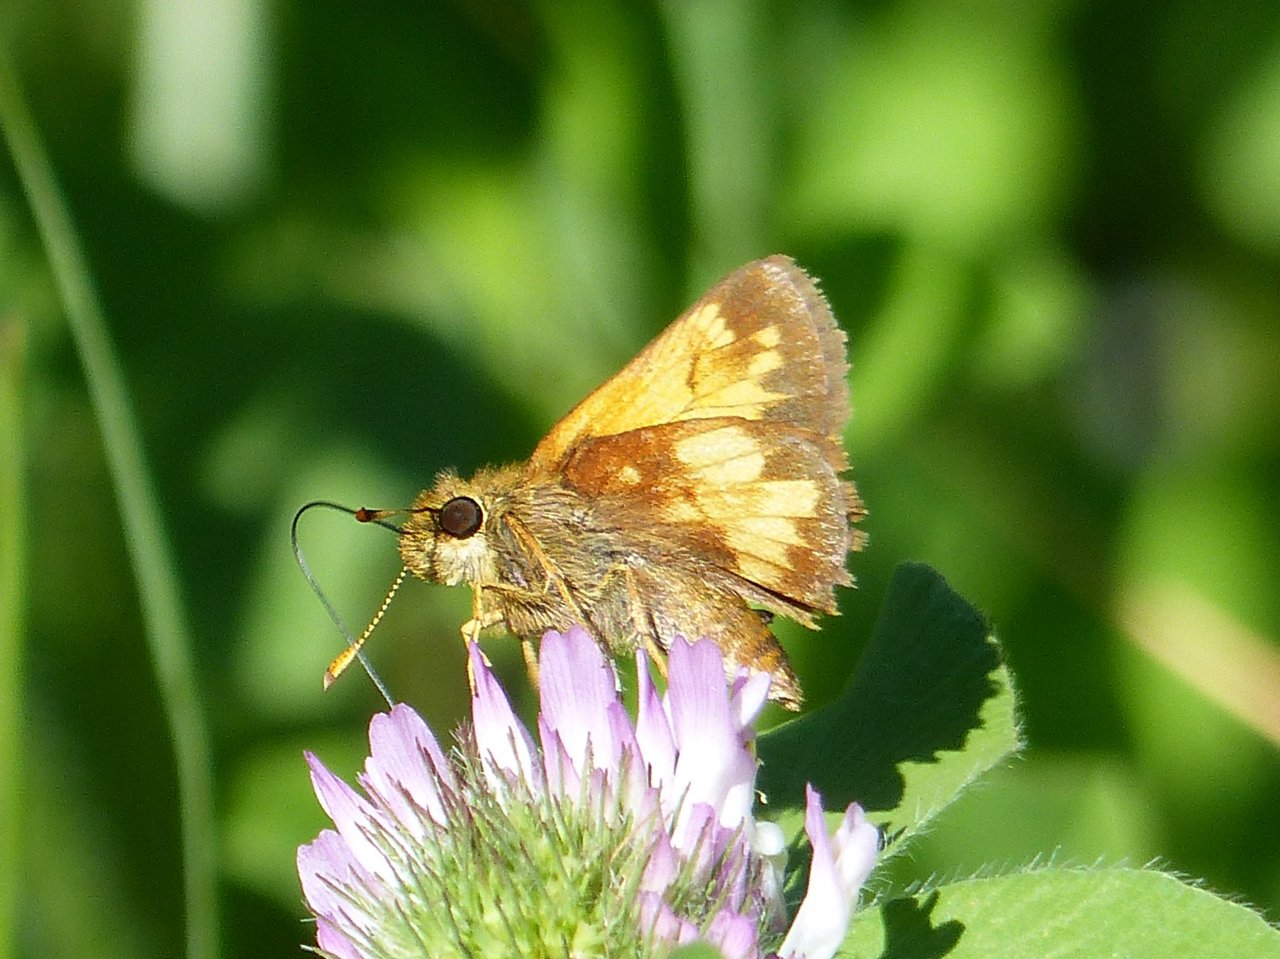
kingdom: Animalia
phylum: Arthropoda
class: Insecta
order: Lepidoptera
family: Hesperiidae
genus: Lon
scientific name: Lon hobomok
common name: Hobomok Skipper
